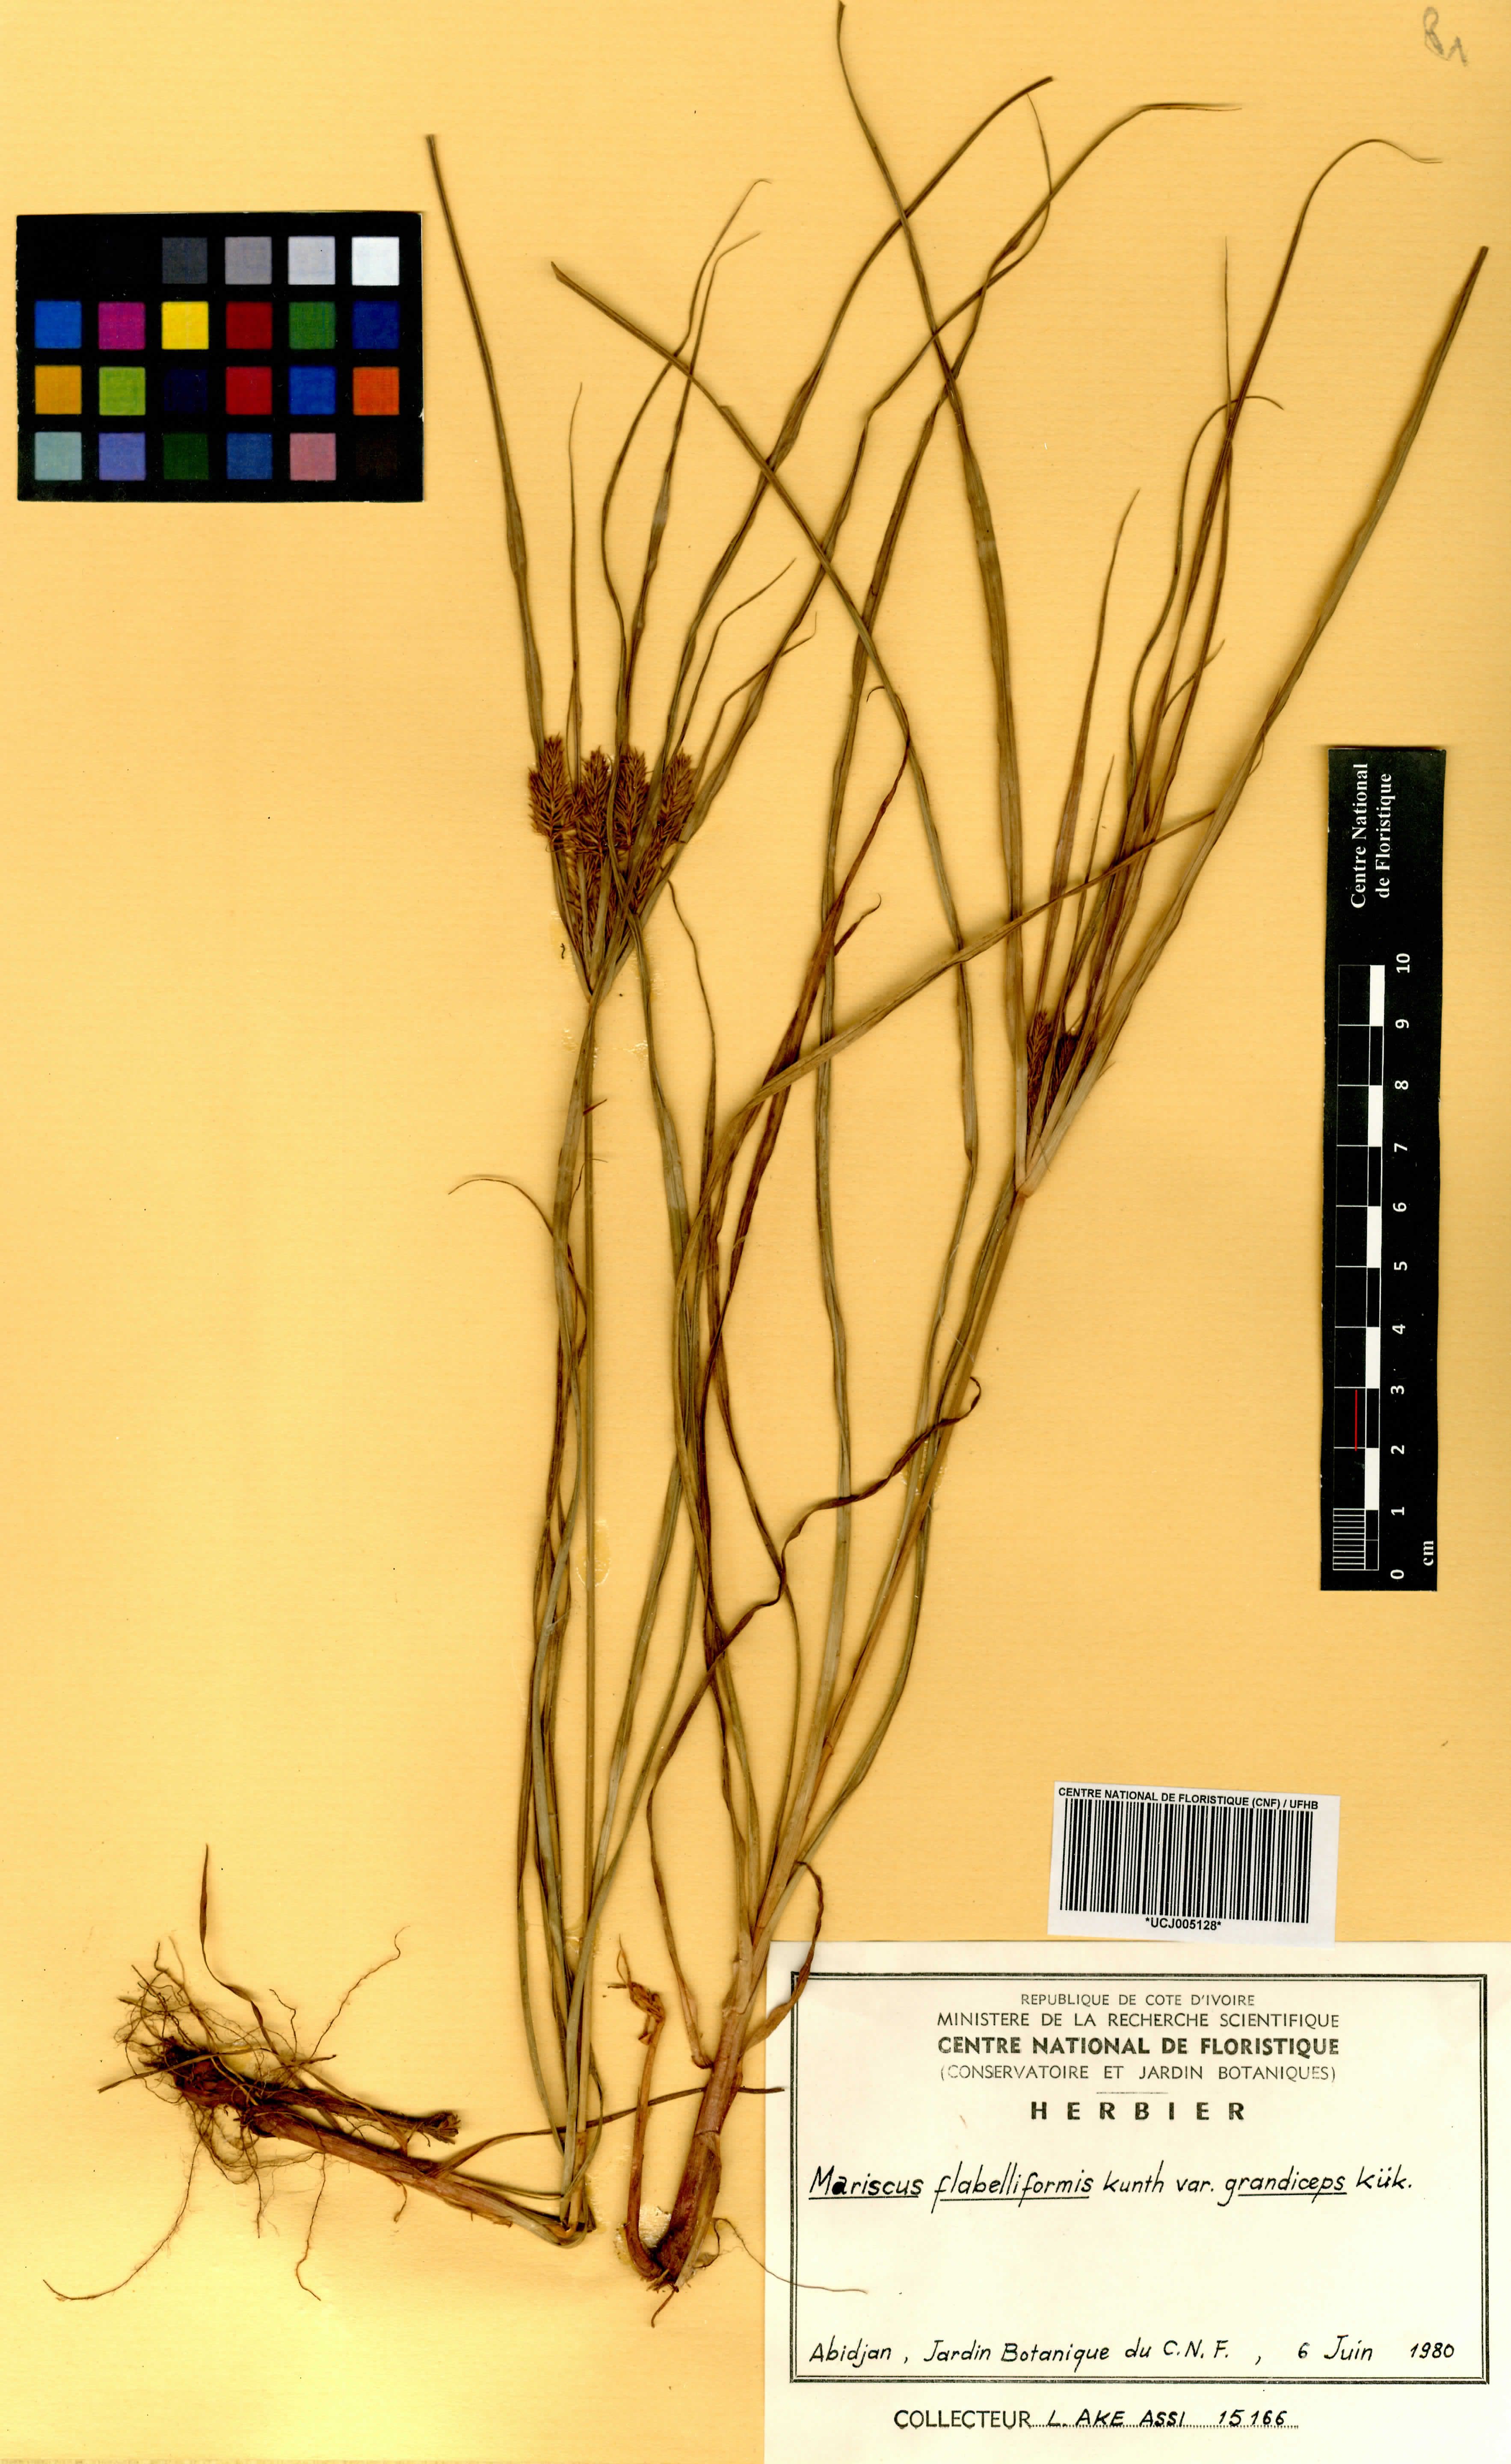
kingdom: Plantae
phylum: Tracheophyta
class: Liliopsida
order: Poales
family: Cyperaceae
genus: Cyperus
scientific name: Cyperus tenuis
